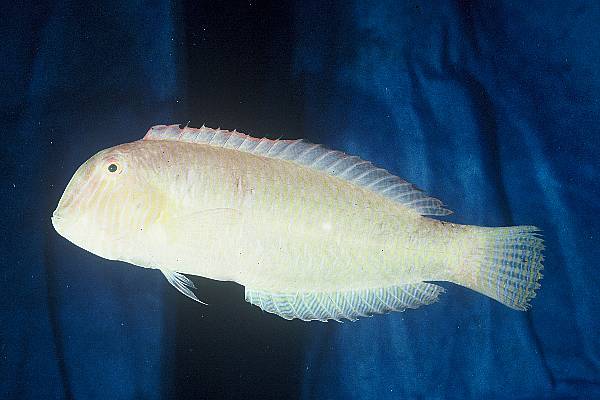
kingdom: Animalia
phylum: Chordata
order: Perciformes
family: Labridae
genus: Xyrichtys
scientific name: Xyrichtys novacula
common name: Pearly razorfish
